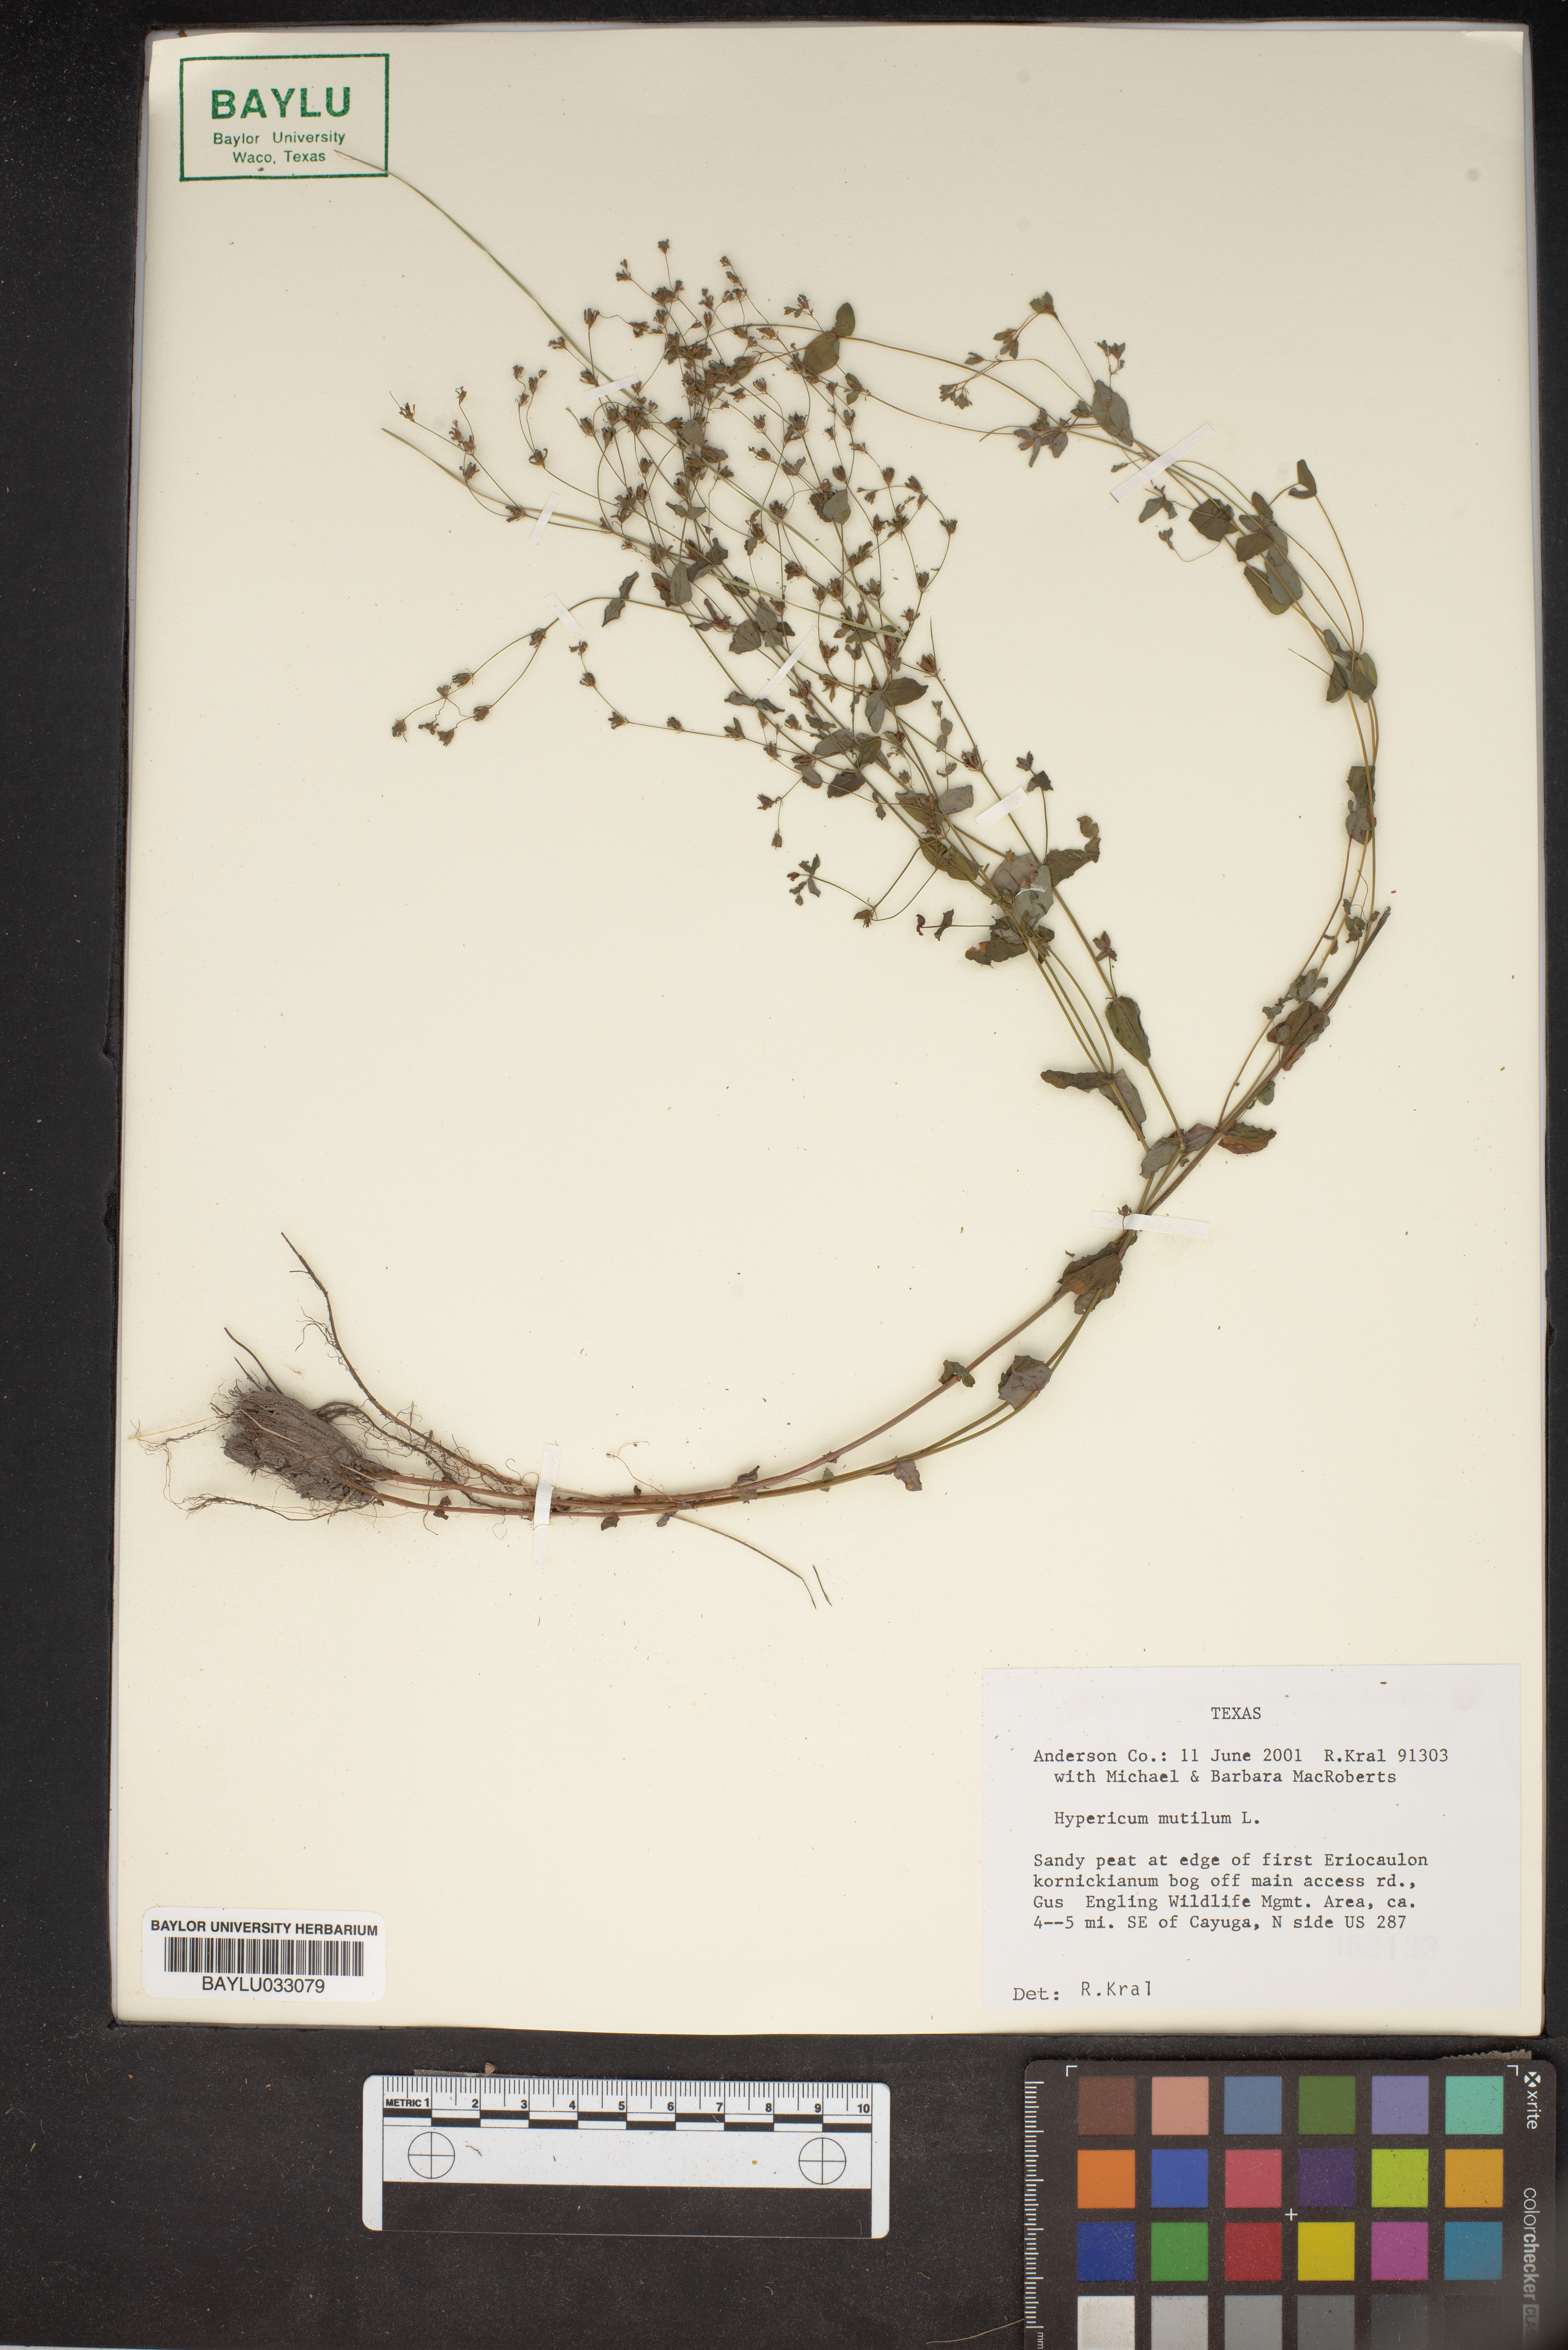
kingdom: Plantae
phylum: Tracheophyta
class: Magnoliopsida
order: Malpighiales
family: Hypericaceae
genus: Hypericum
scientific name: Hypericum mutilum
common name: Dwarf st. john's-wort
